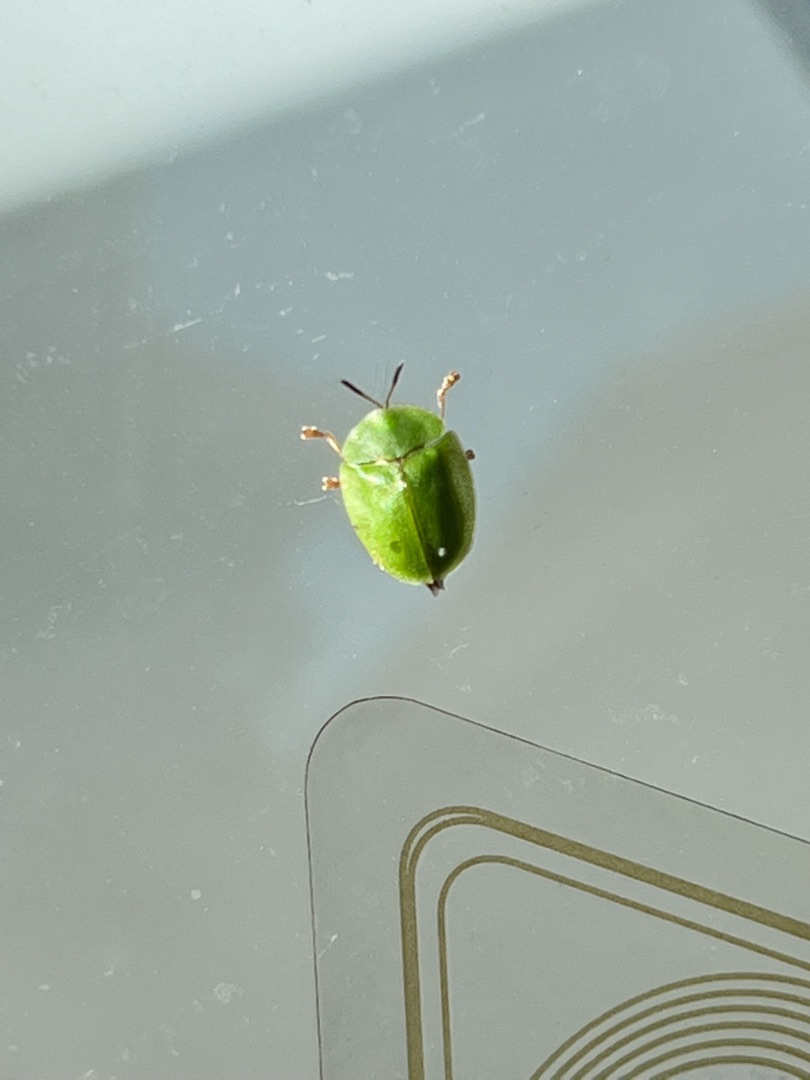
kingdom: Animalia
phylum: Arthropoda
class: Insecta
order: Coleoptera
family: Chrysomelidae
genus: Cassida
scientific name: Cassida viridis
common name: Stor skjoldbille
